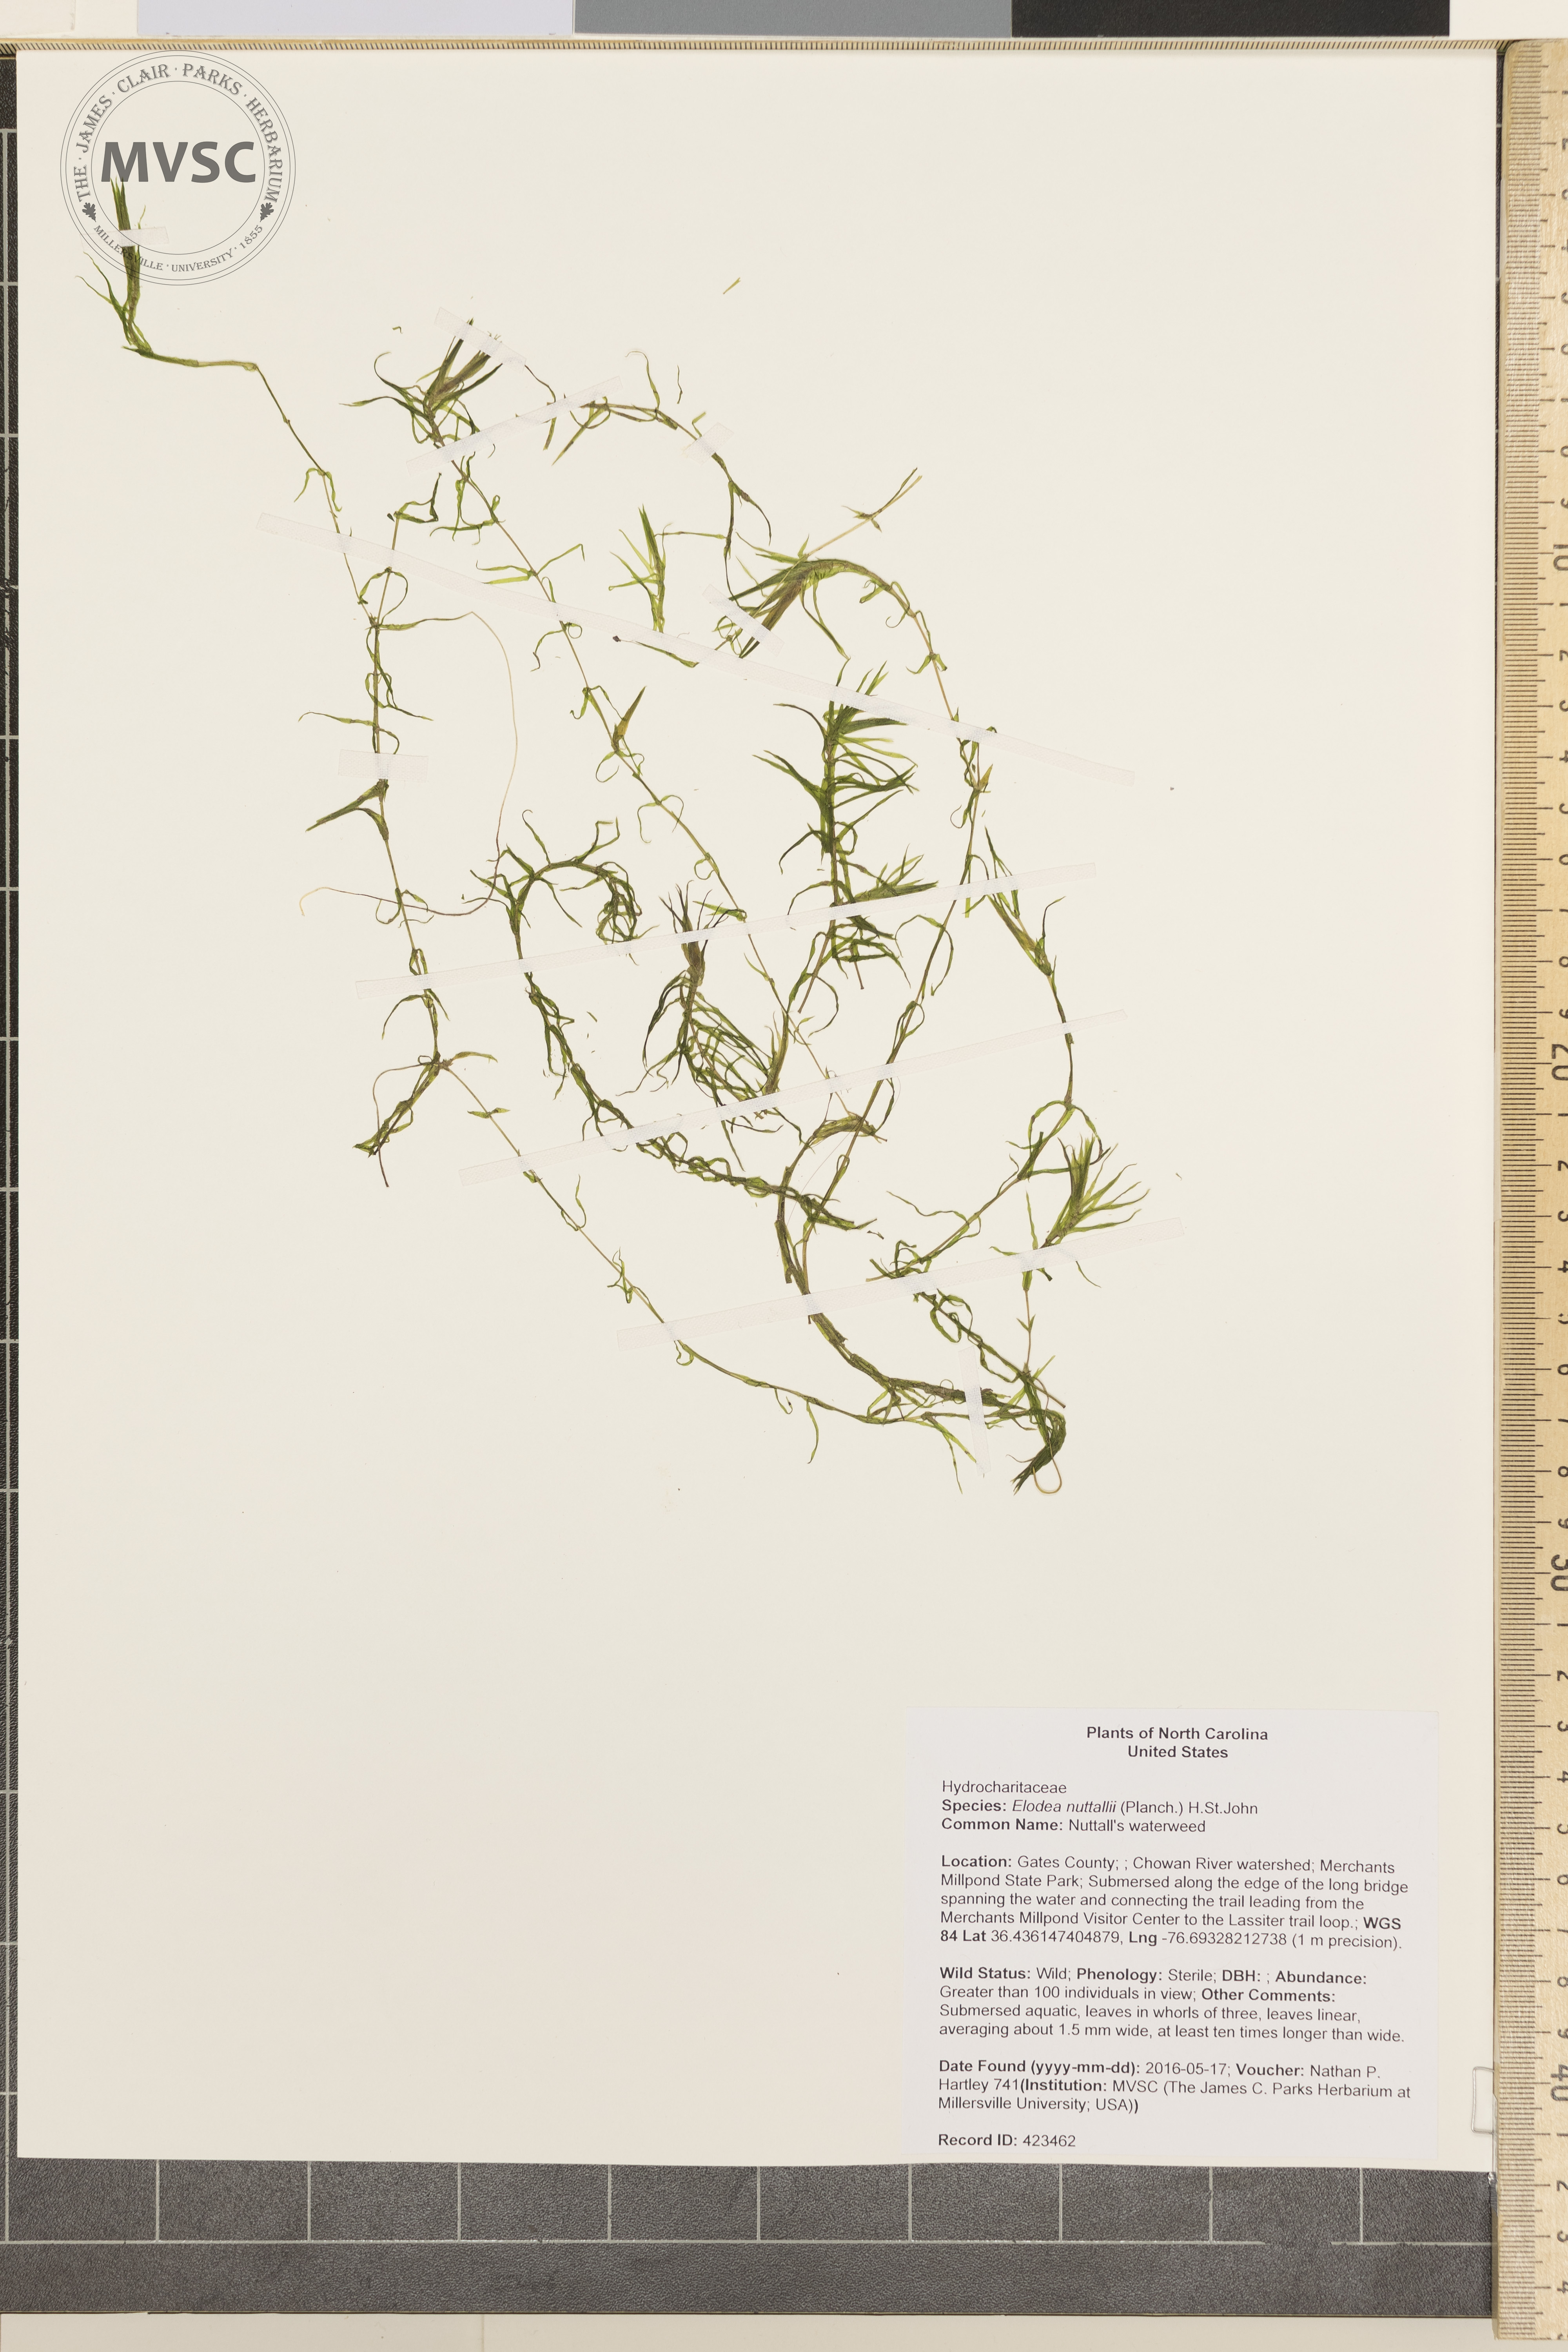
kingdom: Plantae
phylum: Tracheophyta
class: Liliopsida
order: Alismatales
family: Hydrocharitaceae
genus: Elodea
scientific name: Elodea nuttallii
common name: Nuttall's waterweed
